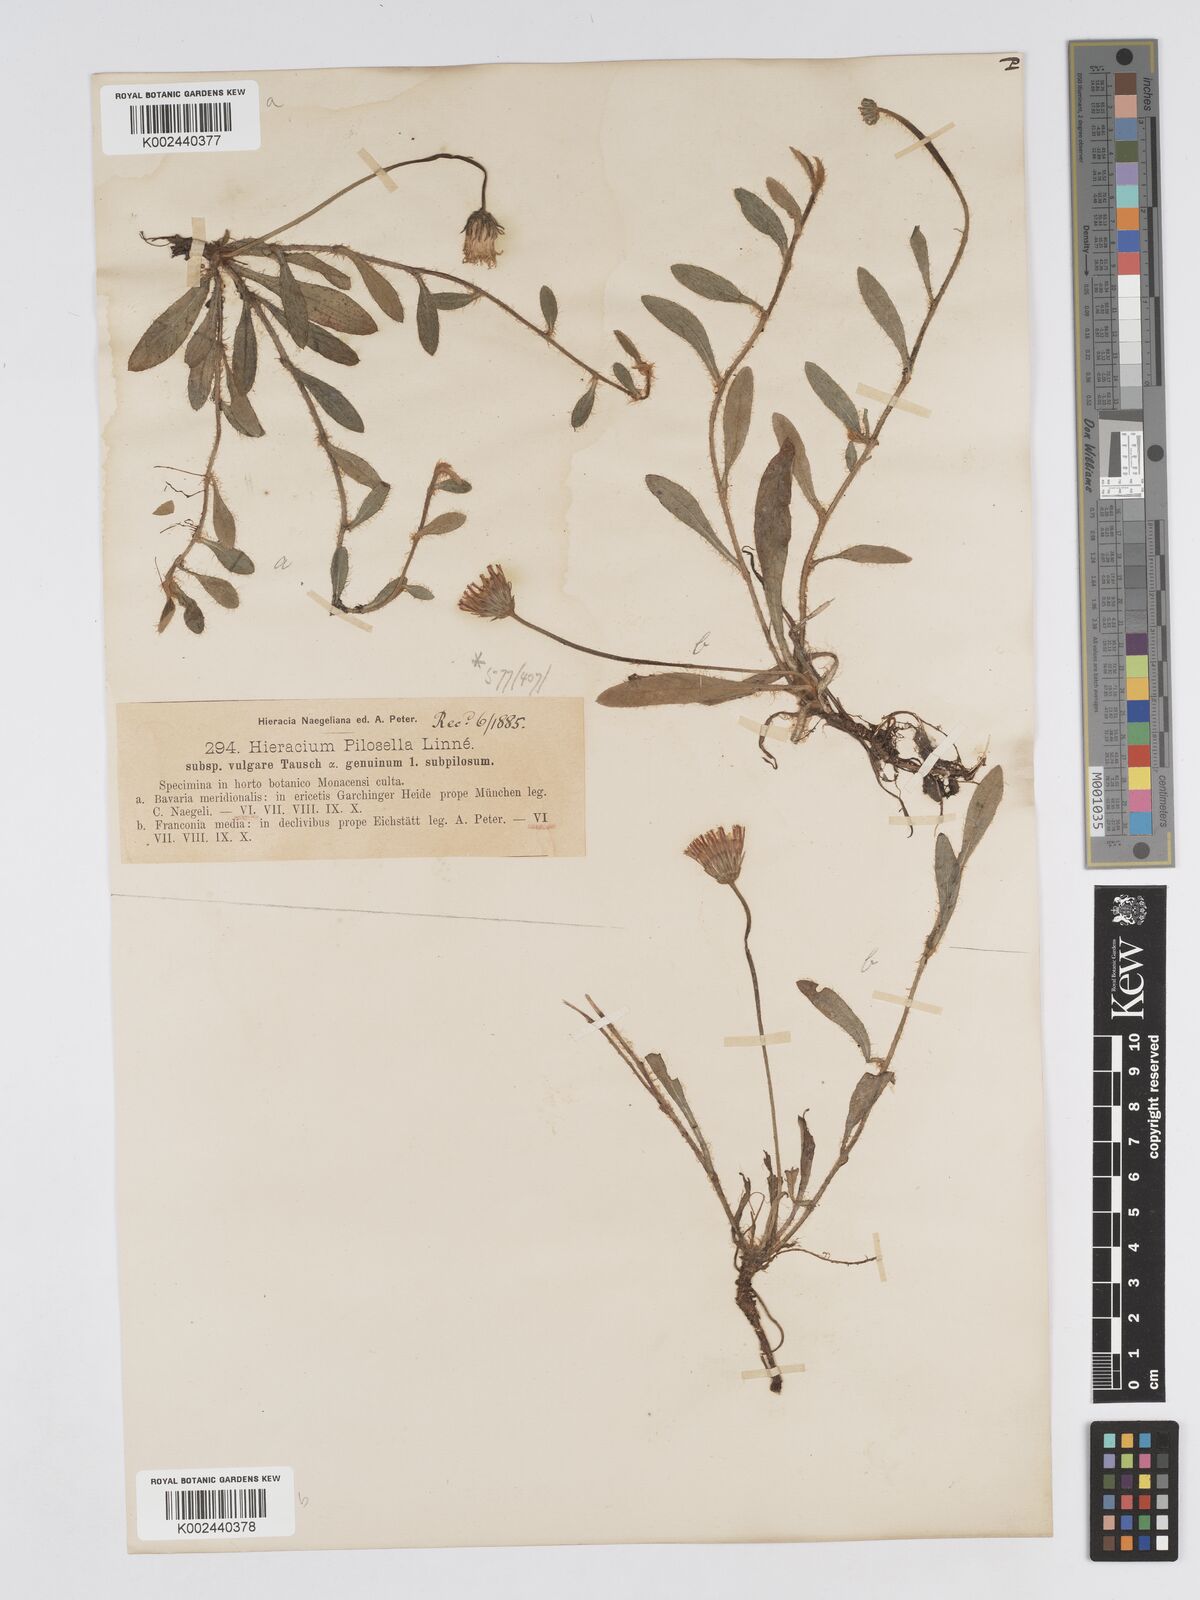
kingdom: Plantae
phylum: Tracheophyta
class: Magnoliopsida
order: Asterales
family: Asteraceae
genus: Pilosella
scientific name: Pilosella officinarum
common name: Mouse-ear hawkweed
